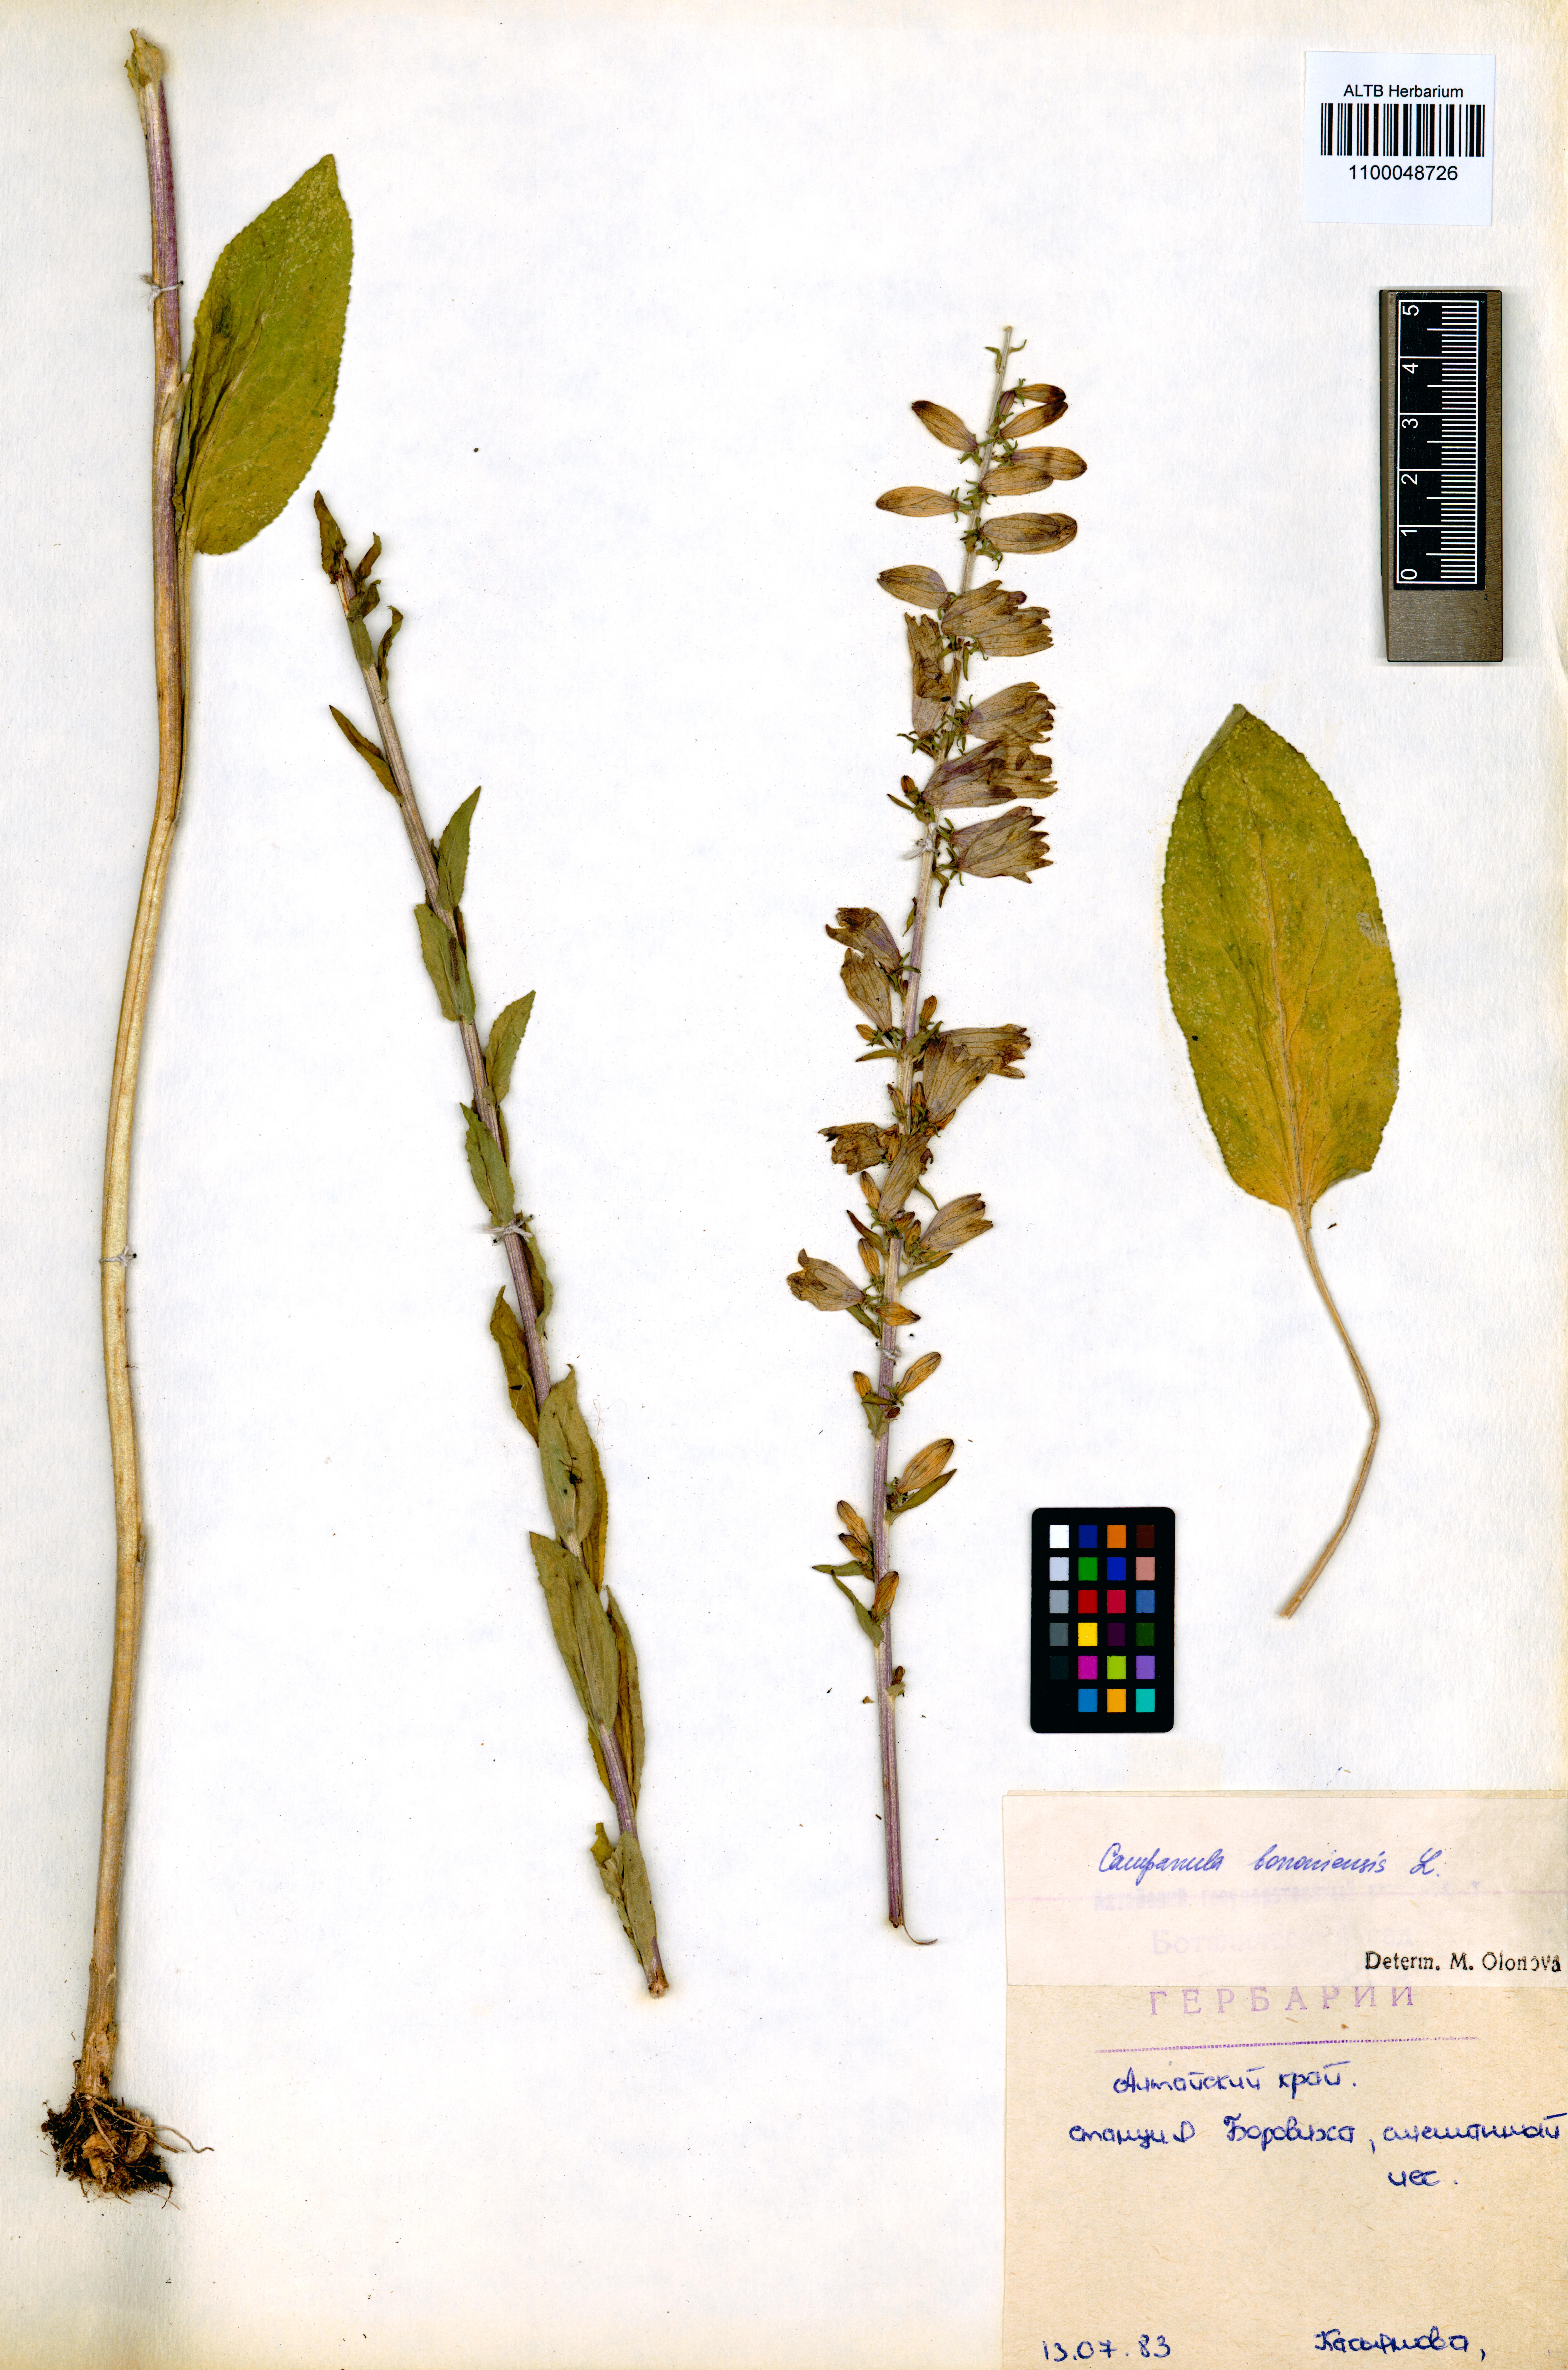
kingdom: Plantae
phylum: Tracheophyta
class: Magnoliopsida
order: Asterales
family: Campanulaceae
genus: Campanula
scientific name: Campanula bononiensis
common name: Pale bellflower
